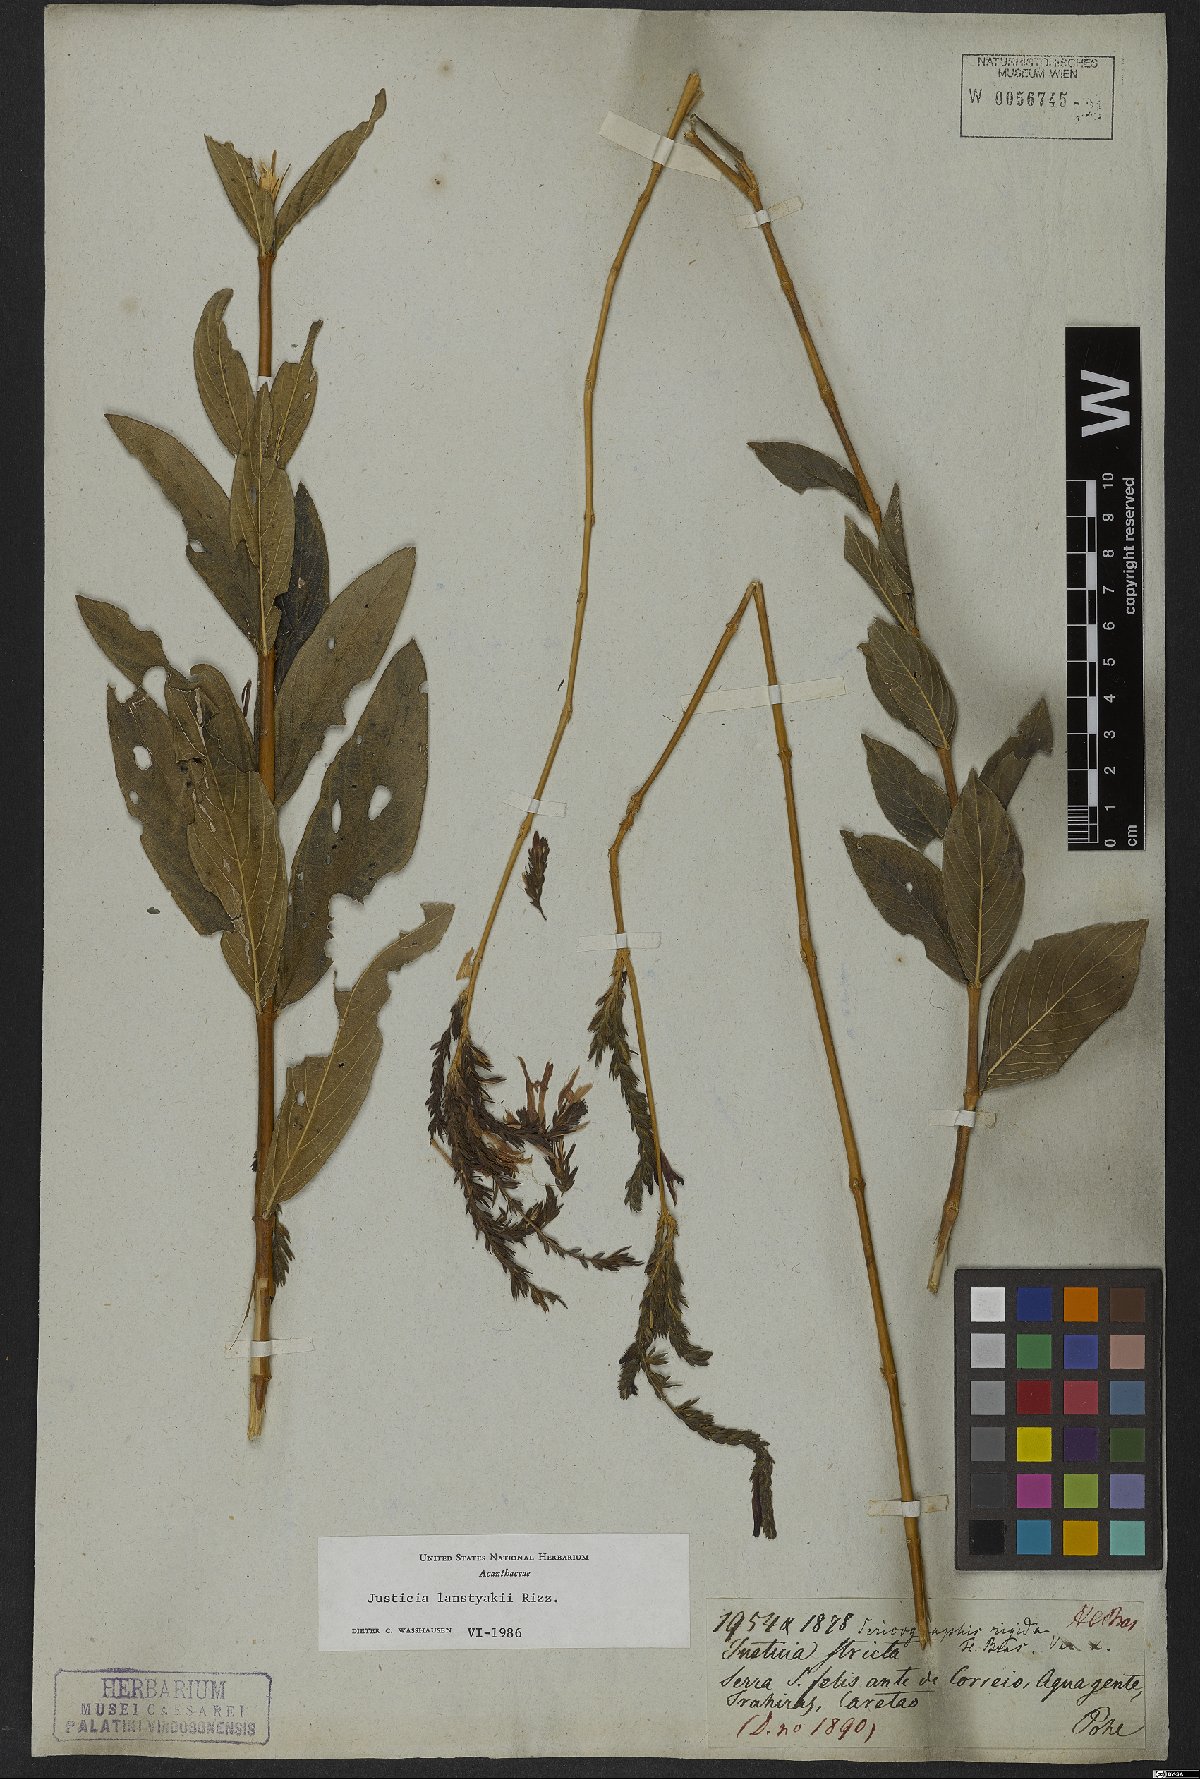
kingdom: Plantae
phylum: Tracheophyta
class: Magnoliopsida
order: Lamiales
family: Acanthaceae
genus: Justicia
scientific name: Justicia lanstyakii
